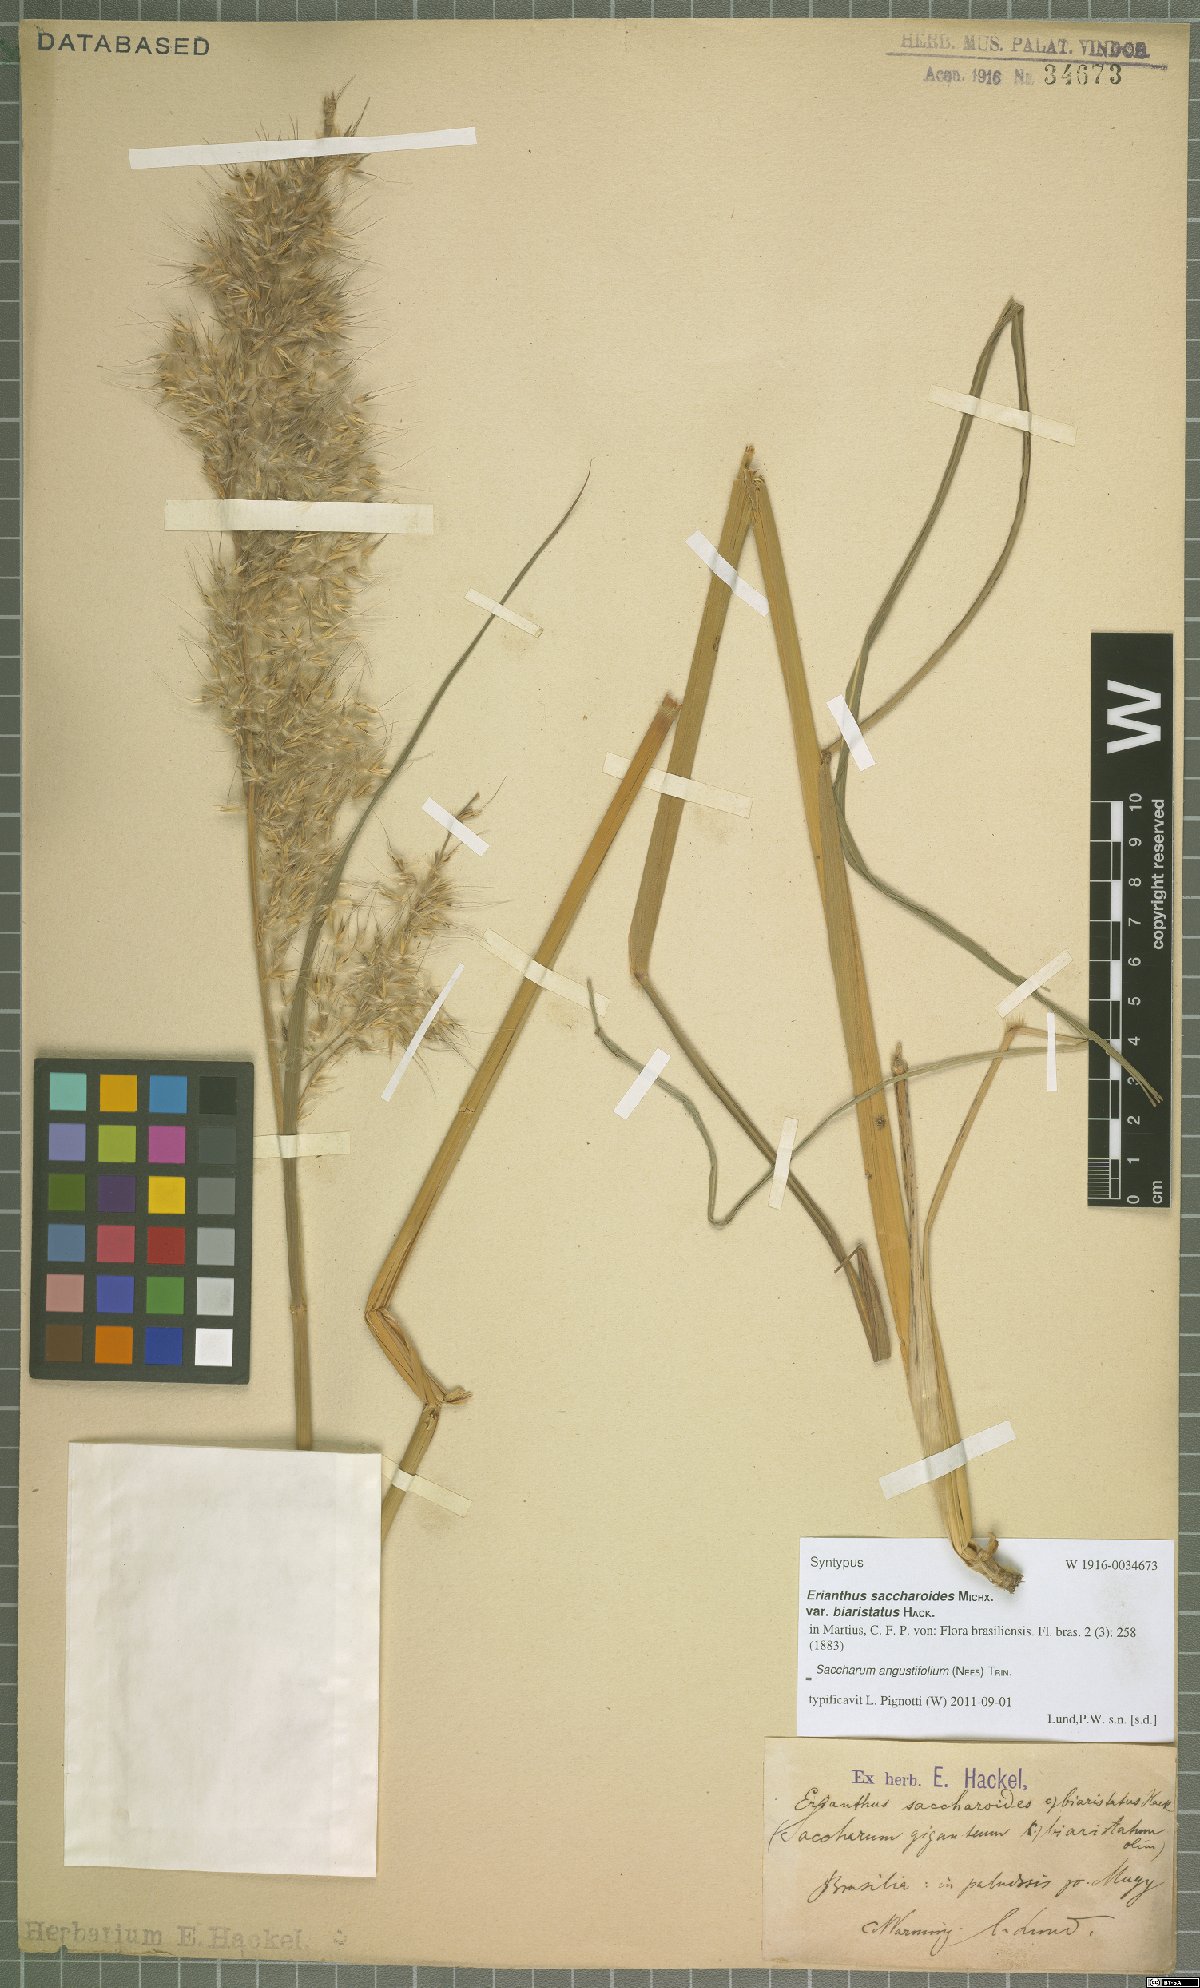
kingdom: Plantae
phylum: Tracheophyta
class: Liliopsida
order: Poales
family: Poaceae
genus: Saccharum
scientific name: Saccharum angustifolium
